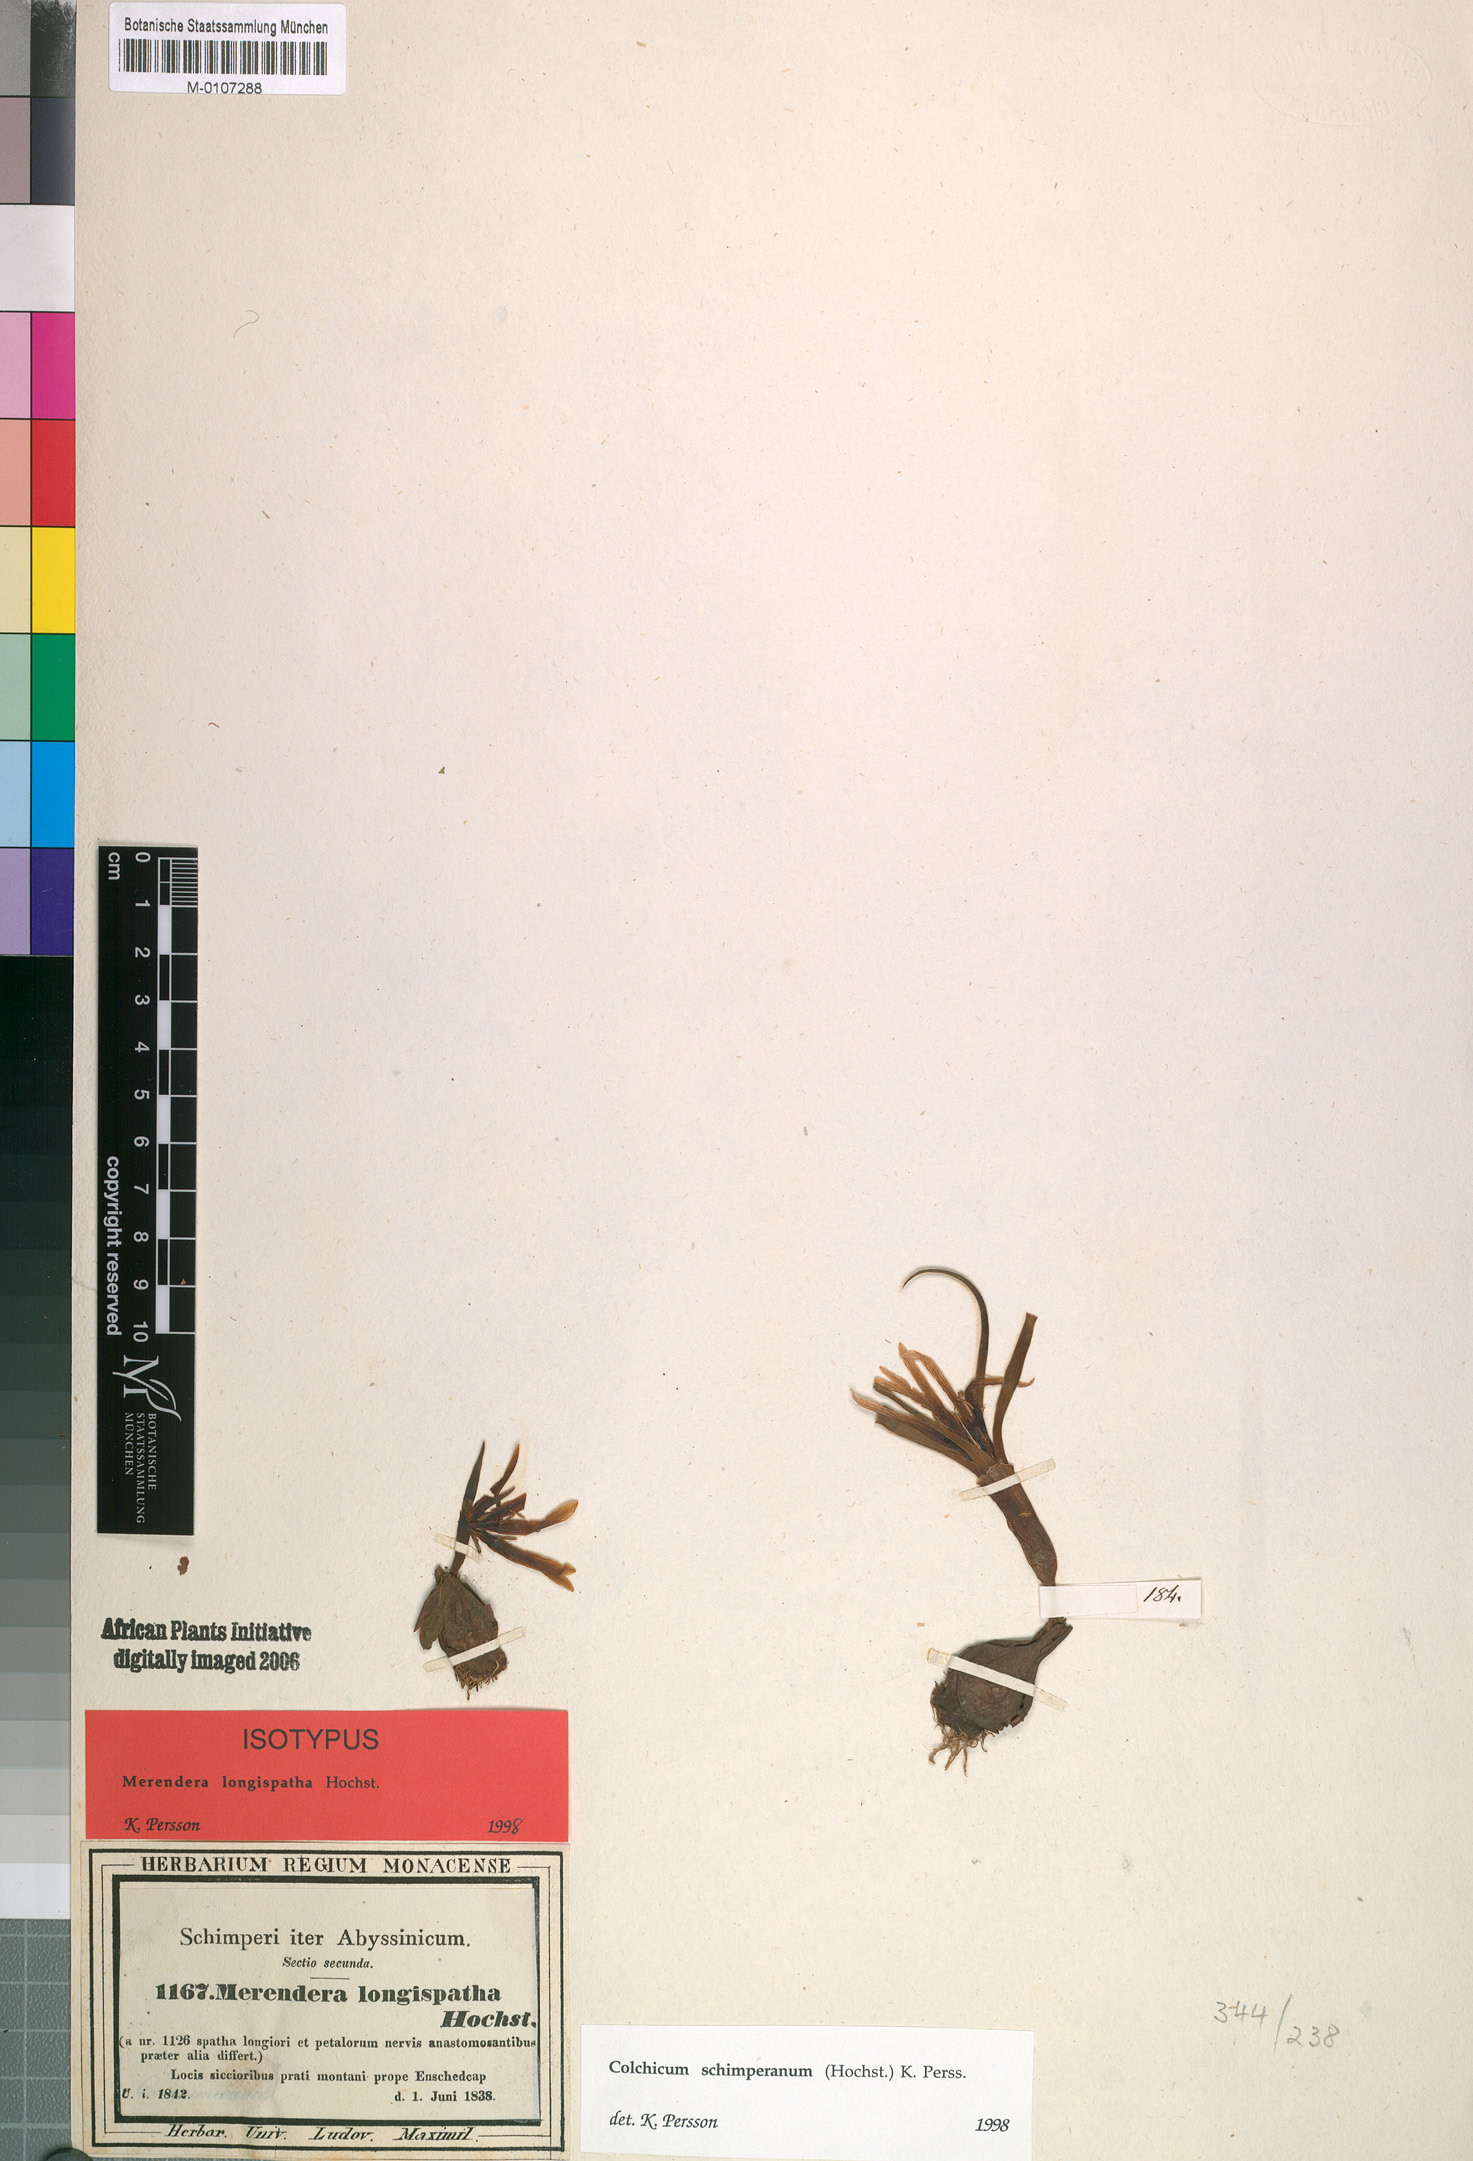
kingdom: Plantae
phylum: Tracheophyta
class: Liliopsida
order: Liliales
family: Colchicaceae
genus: Colchicum
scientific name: Colchicum schimperianum
